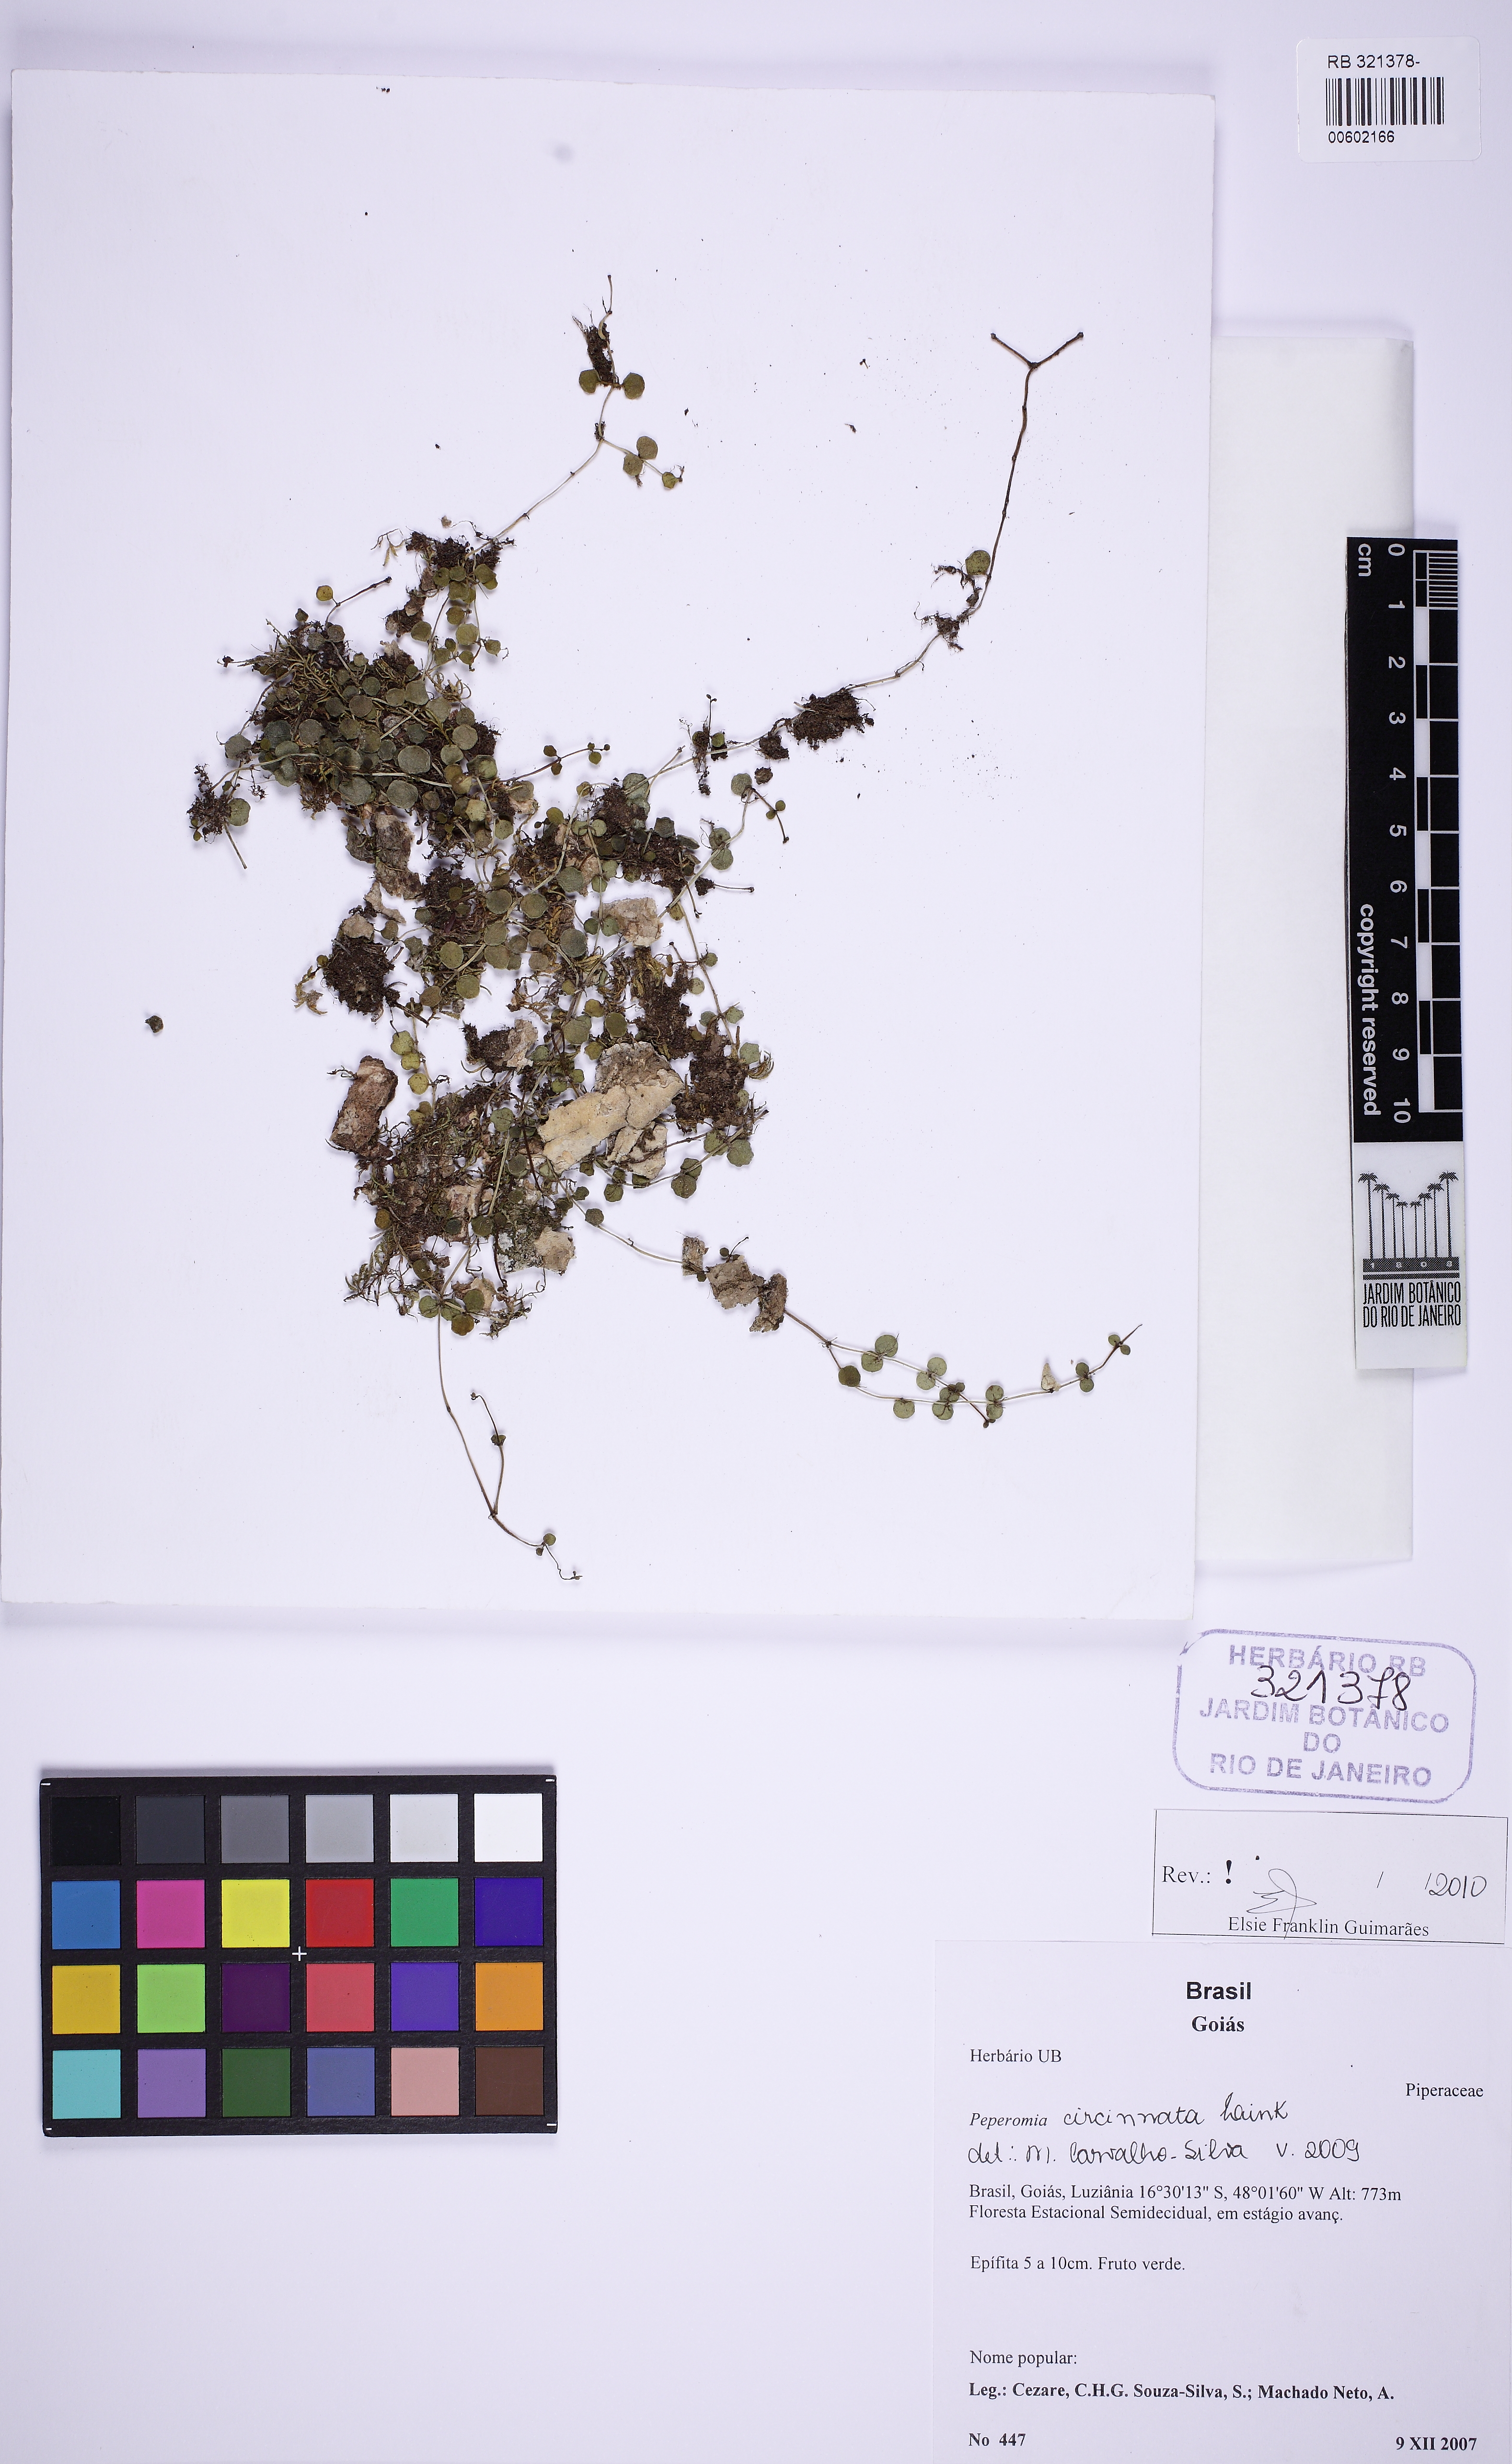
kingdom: Plantae
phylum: Tracheophyta
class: Magnoliopsida
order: Piperales
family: Piperaceae
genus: Peperomia
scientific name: Peperomia circinnata
